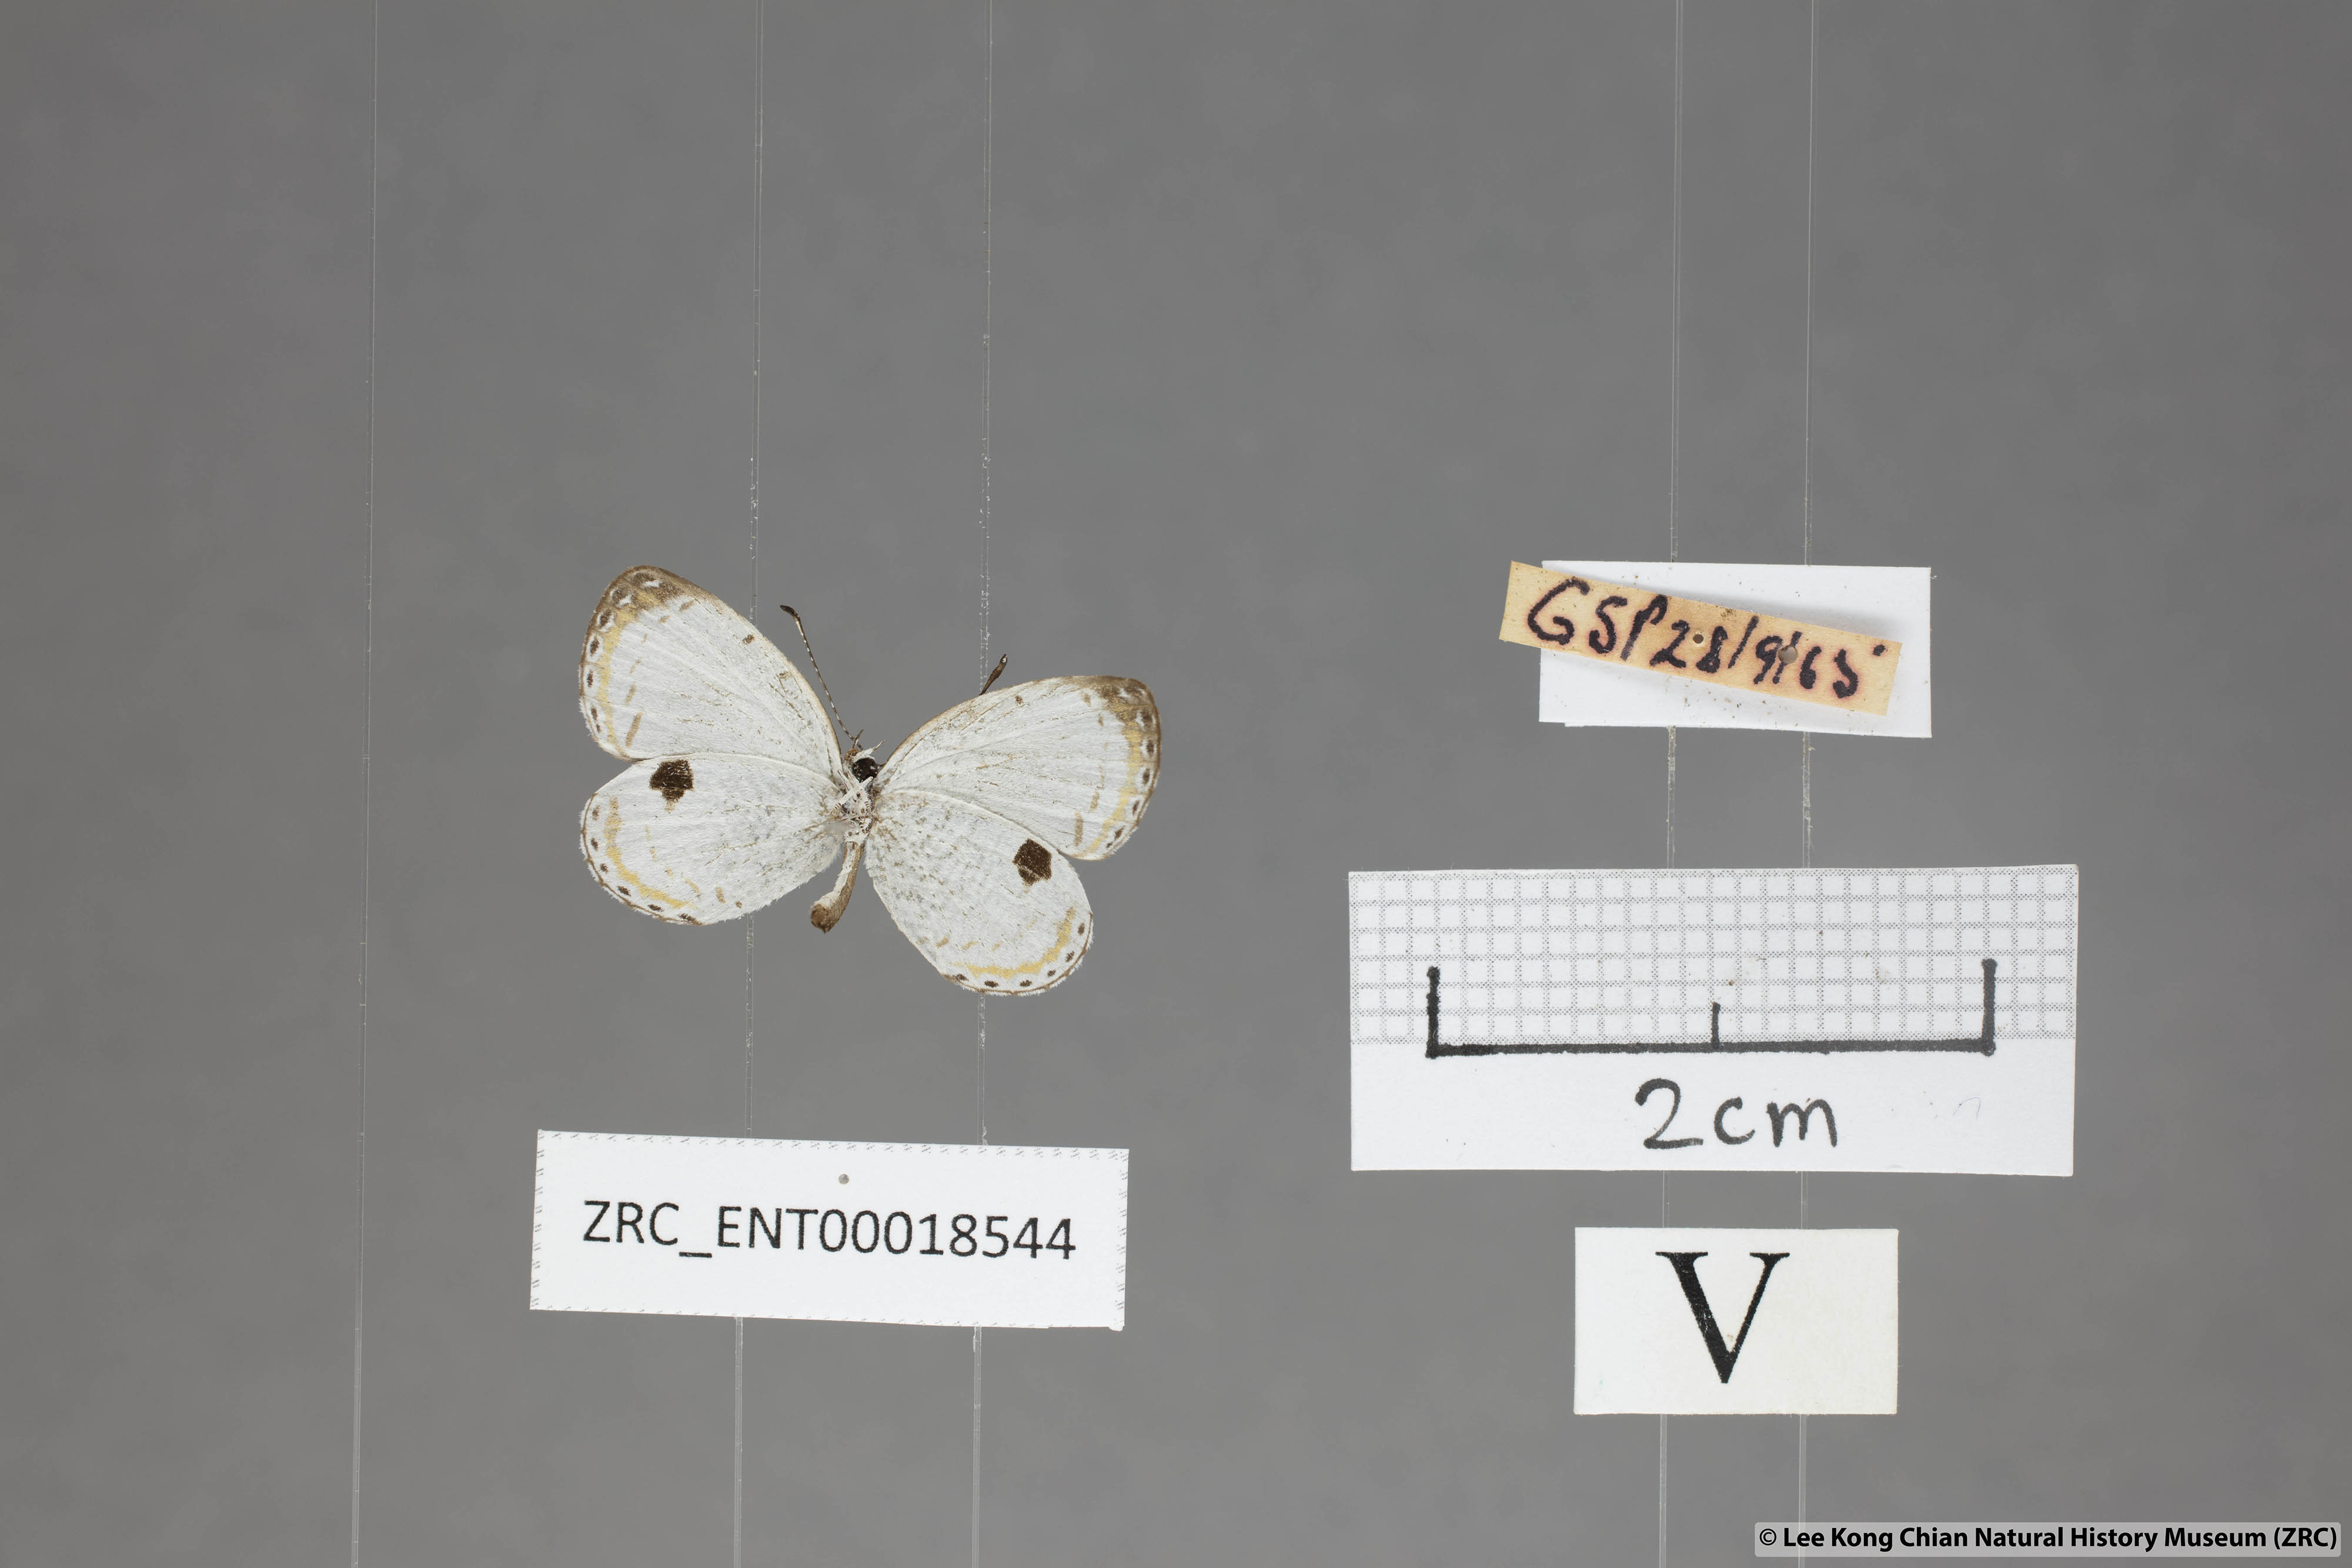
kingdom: Animalia
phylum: Arthropoda
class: Insecta
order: Lepidoptera
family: Lycaenidae
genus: Pithecops
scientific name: Pithecops corvus
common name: Forest quaker
